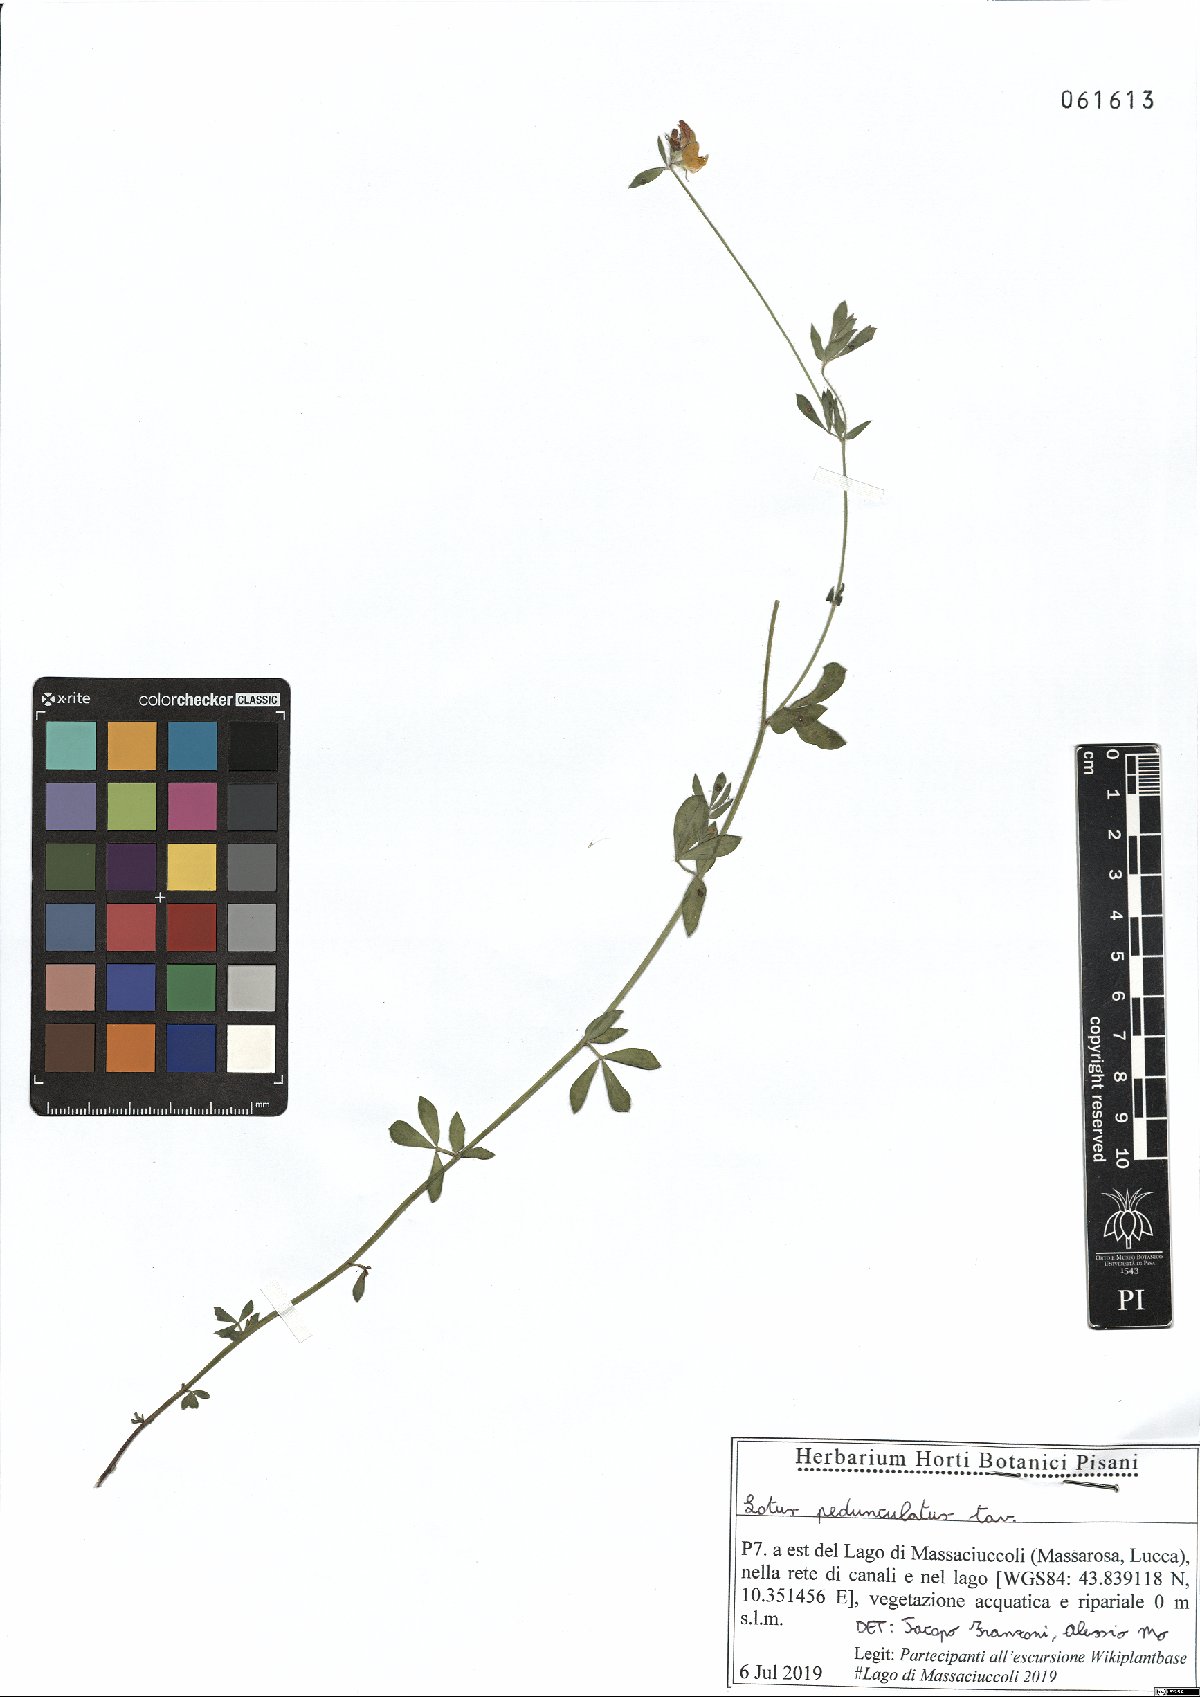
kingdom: Plantae
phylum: Tracheophyta
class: Magnoliopsida
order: Fabales
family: Fabaceae
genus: Lotus
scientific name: Lotus pedunculatus
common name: Greater birdsfoot-trefoil
